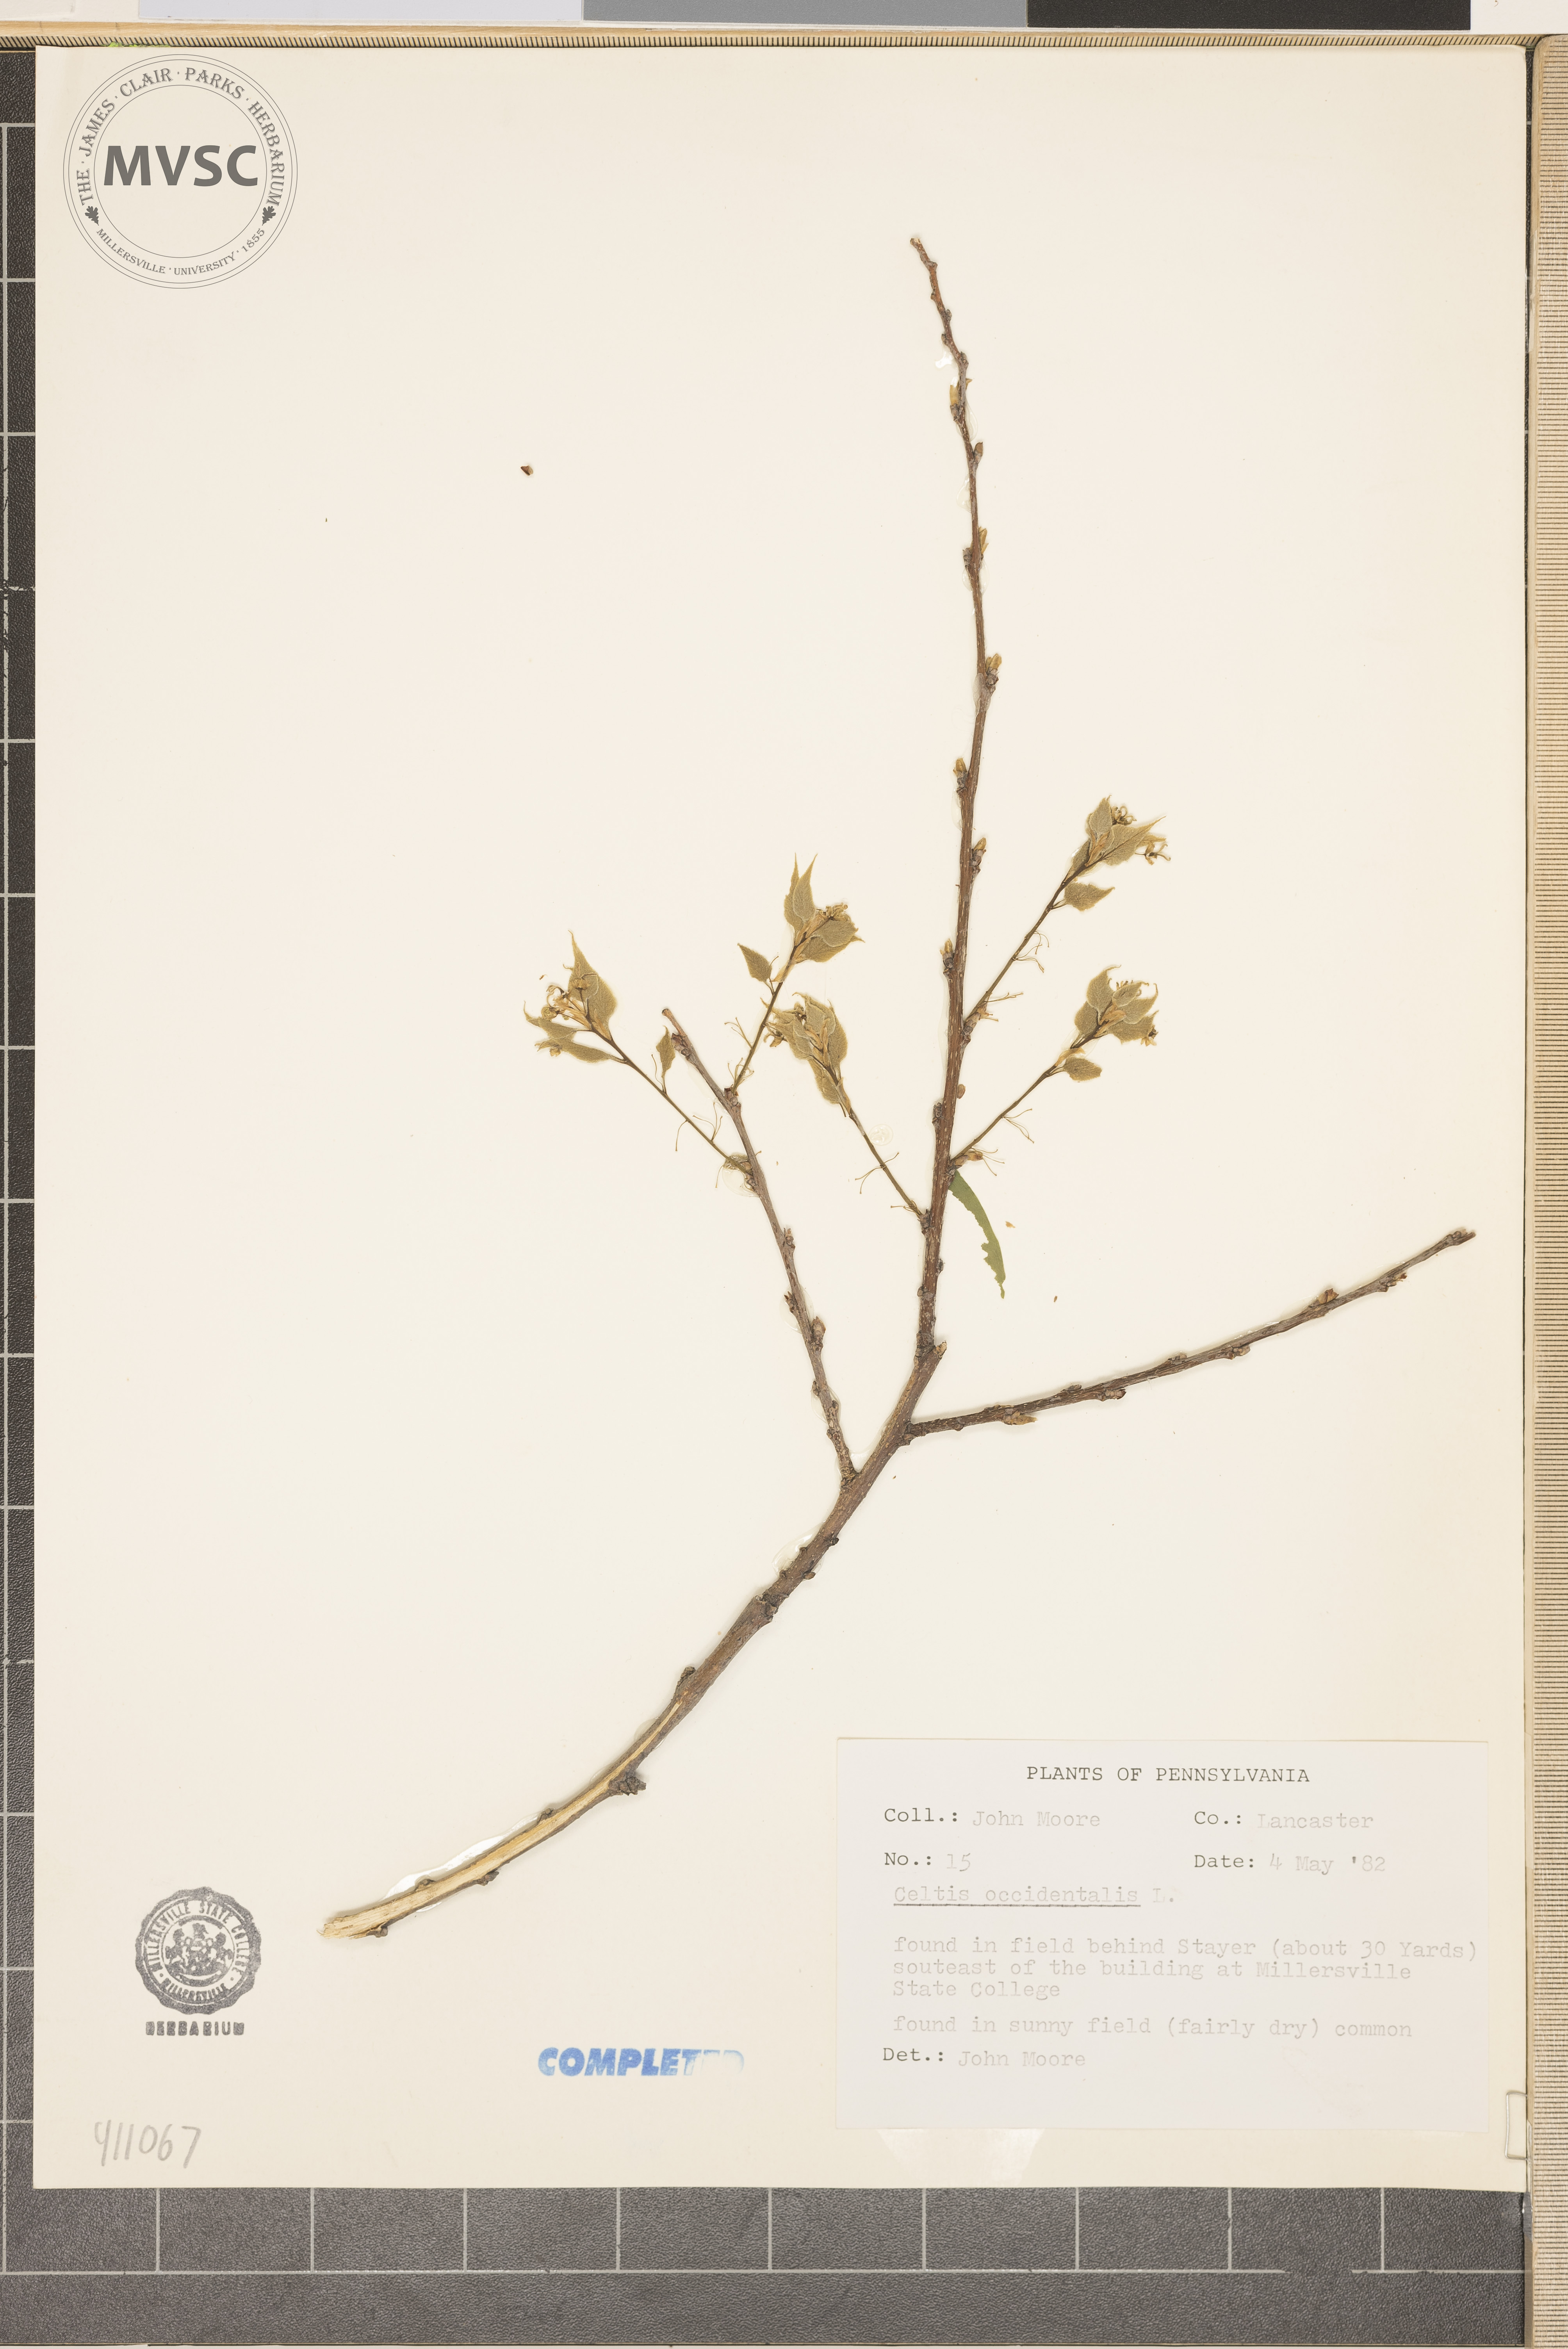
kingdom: Plantae
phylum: Tracheophyta
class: Magnoliopsida
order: Rosales
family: Cannabaceae
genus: Celtis
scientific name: Celtis occidentalis
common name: hackberry
